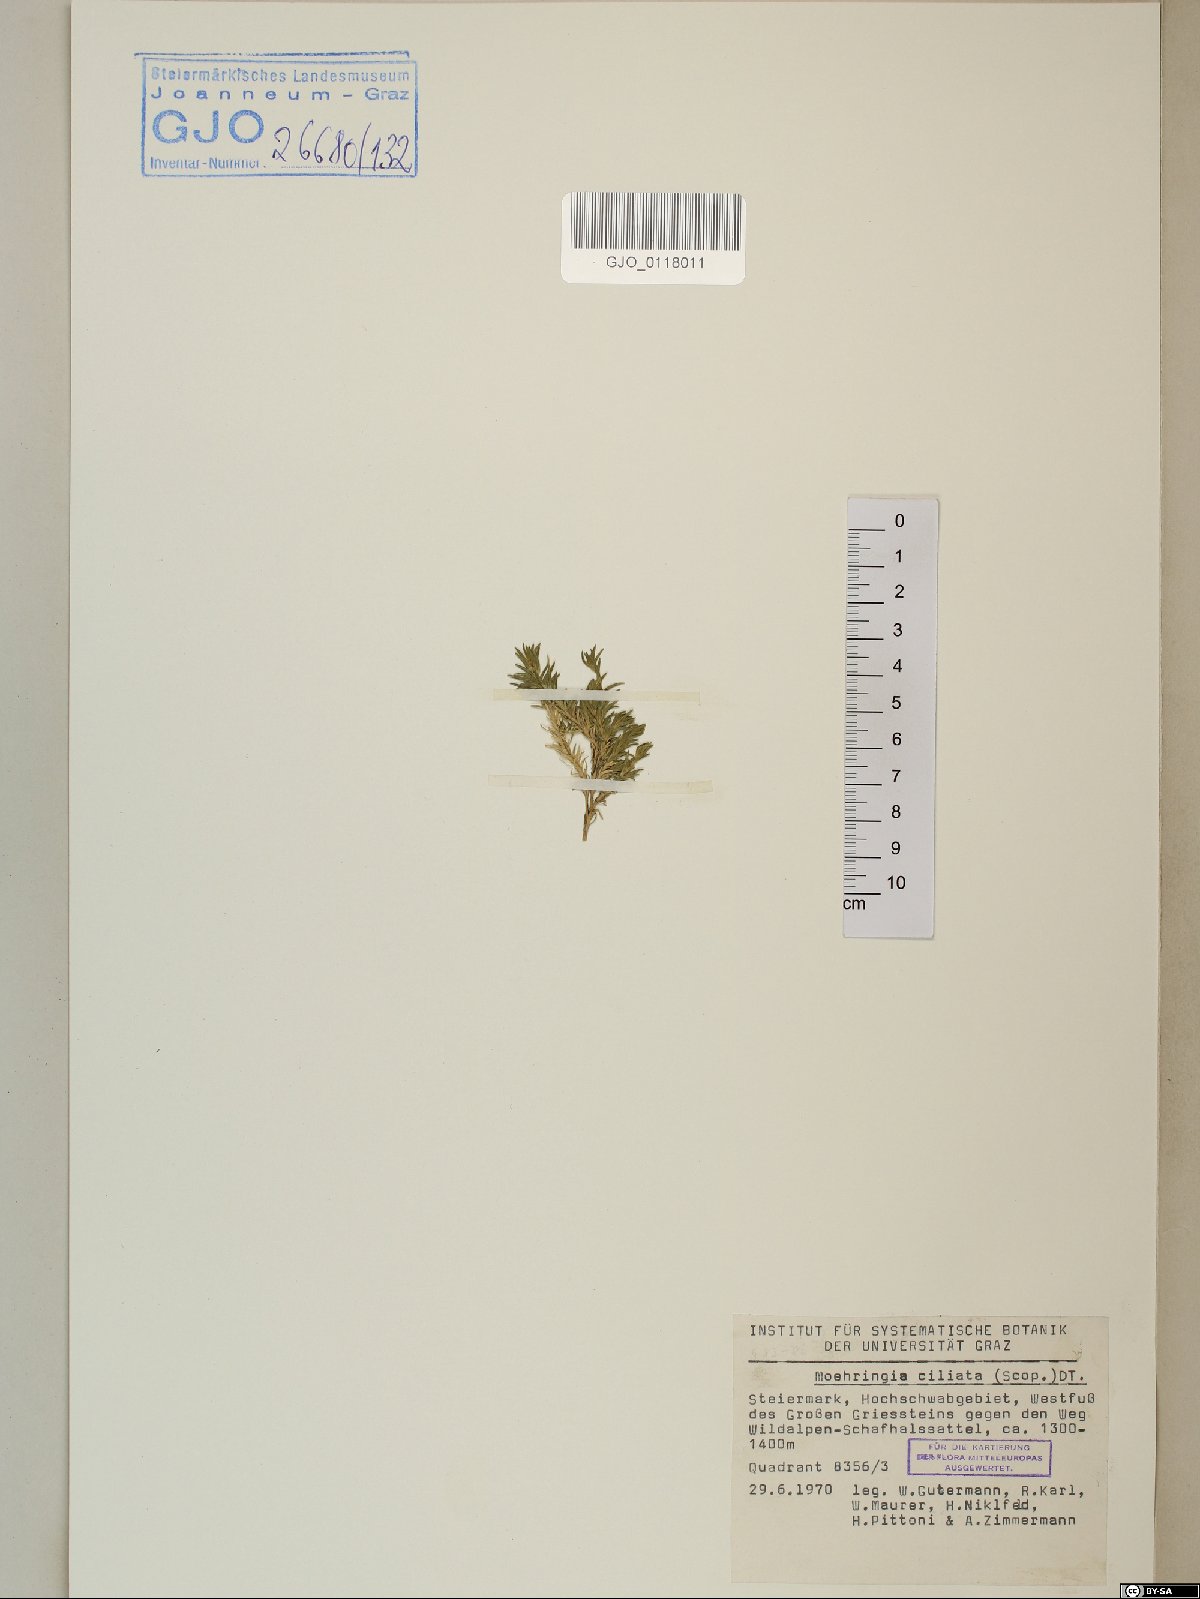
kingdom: Plantae
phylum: Tracheophyta
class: Magnoliopsida
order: Caryophyllales
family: Caryophyllaceae
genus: Moehringia
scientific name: Moehringia ciliata
